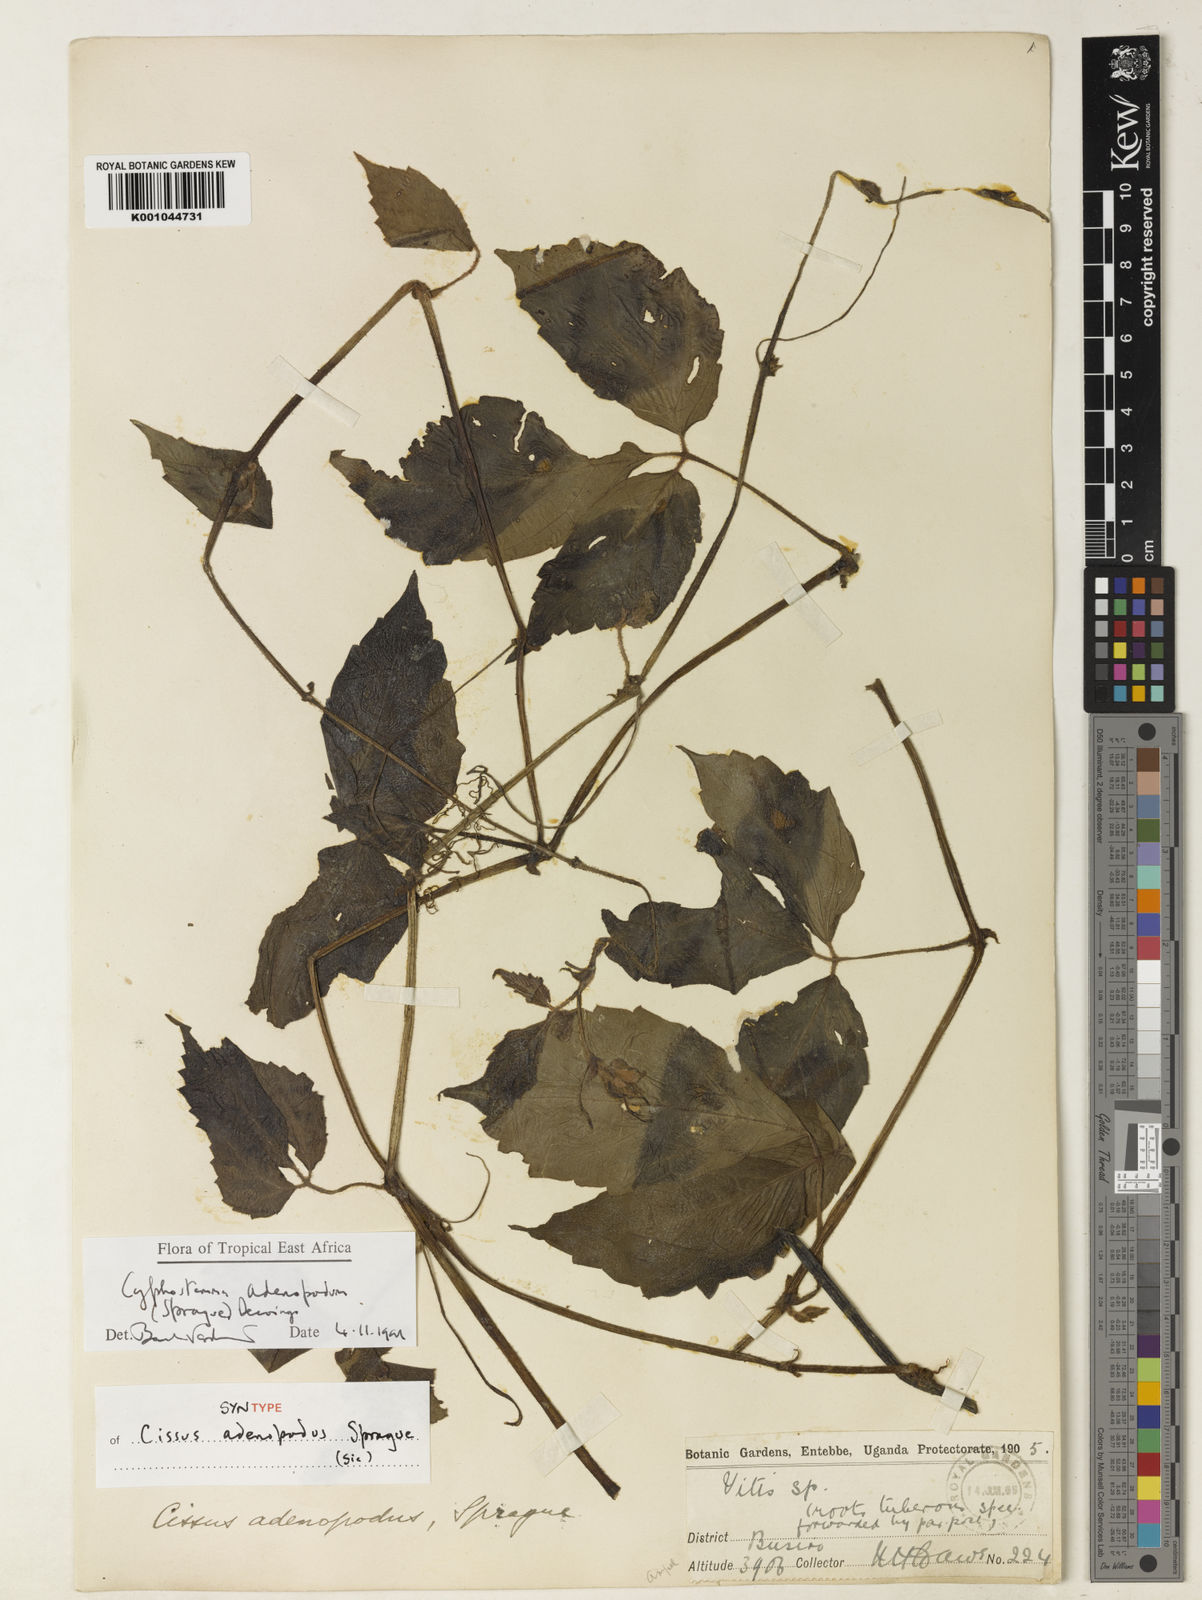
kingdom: Plantae
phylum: Tracheophyta
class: Magnoliopsida
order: Vitales
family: Vitaceae
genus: Cyphostemma
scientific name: Cyphostemma adenopodum
